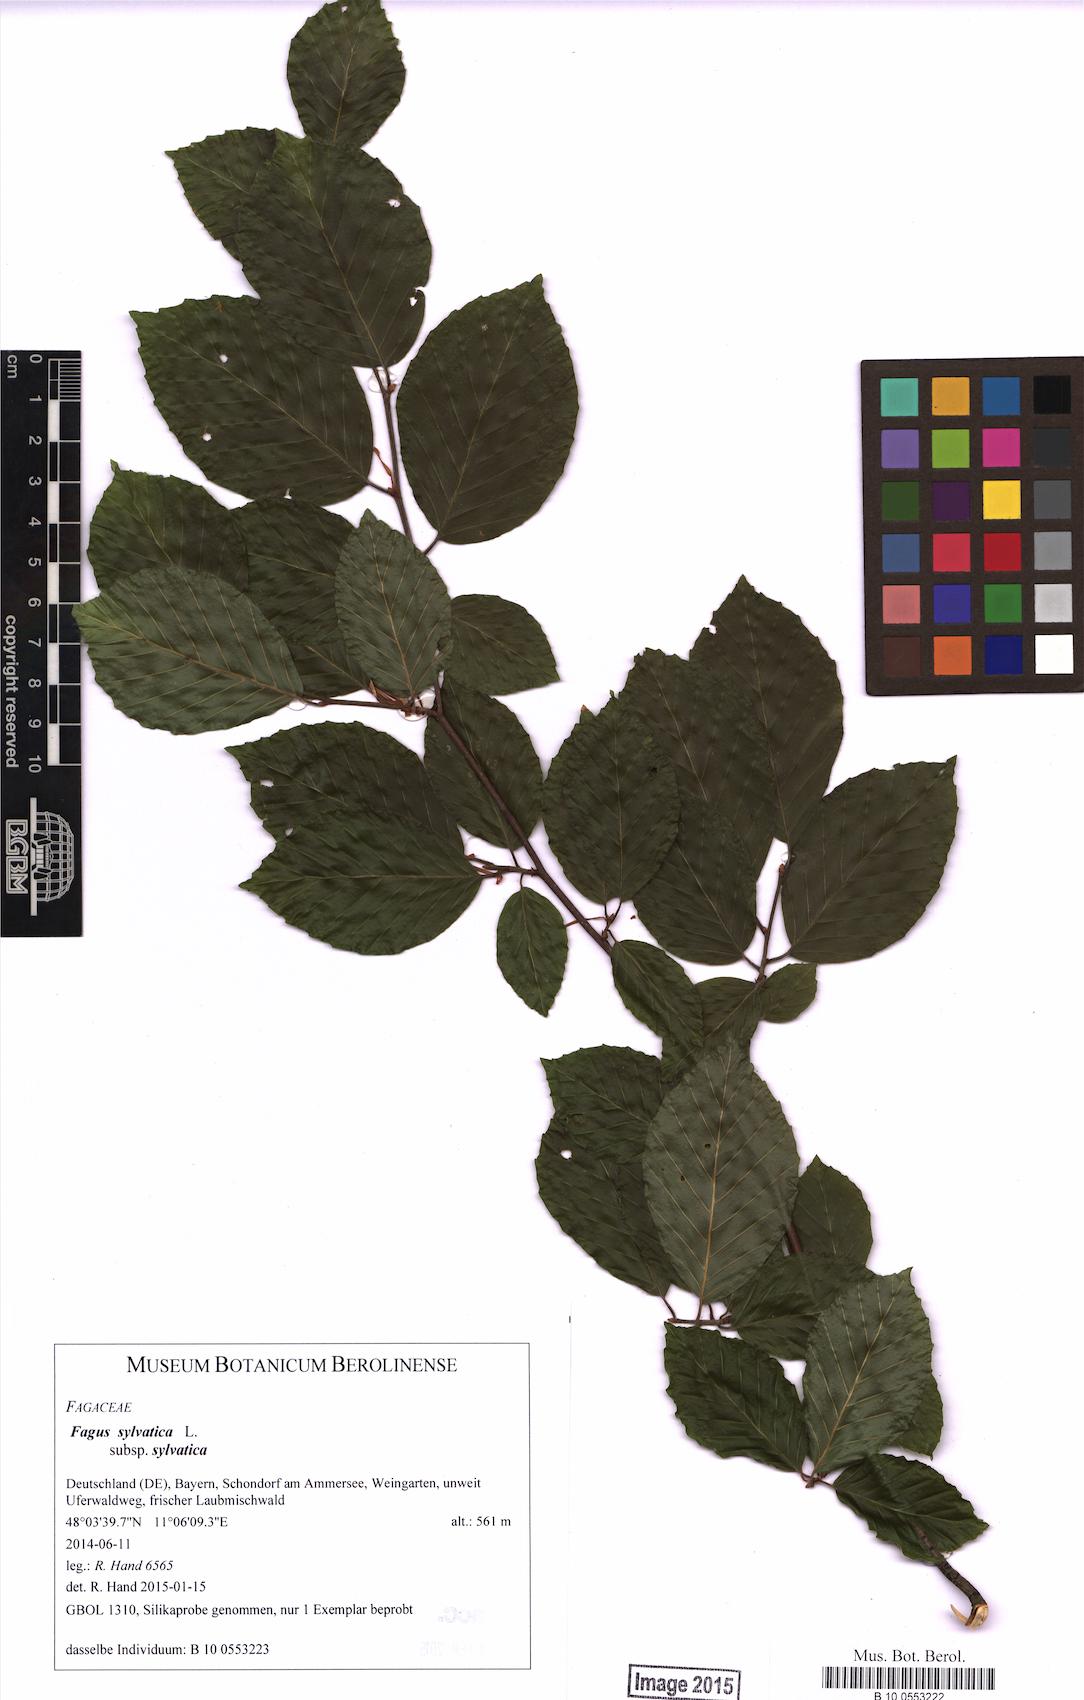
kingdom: Plantae
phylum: Tracheophyta
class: Magnoliopsida
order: Fagales
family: Fagaceae
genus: Fagus
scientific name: Fagus sylvatica
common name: Beech
